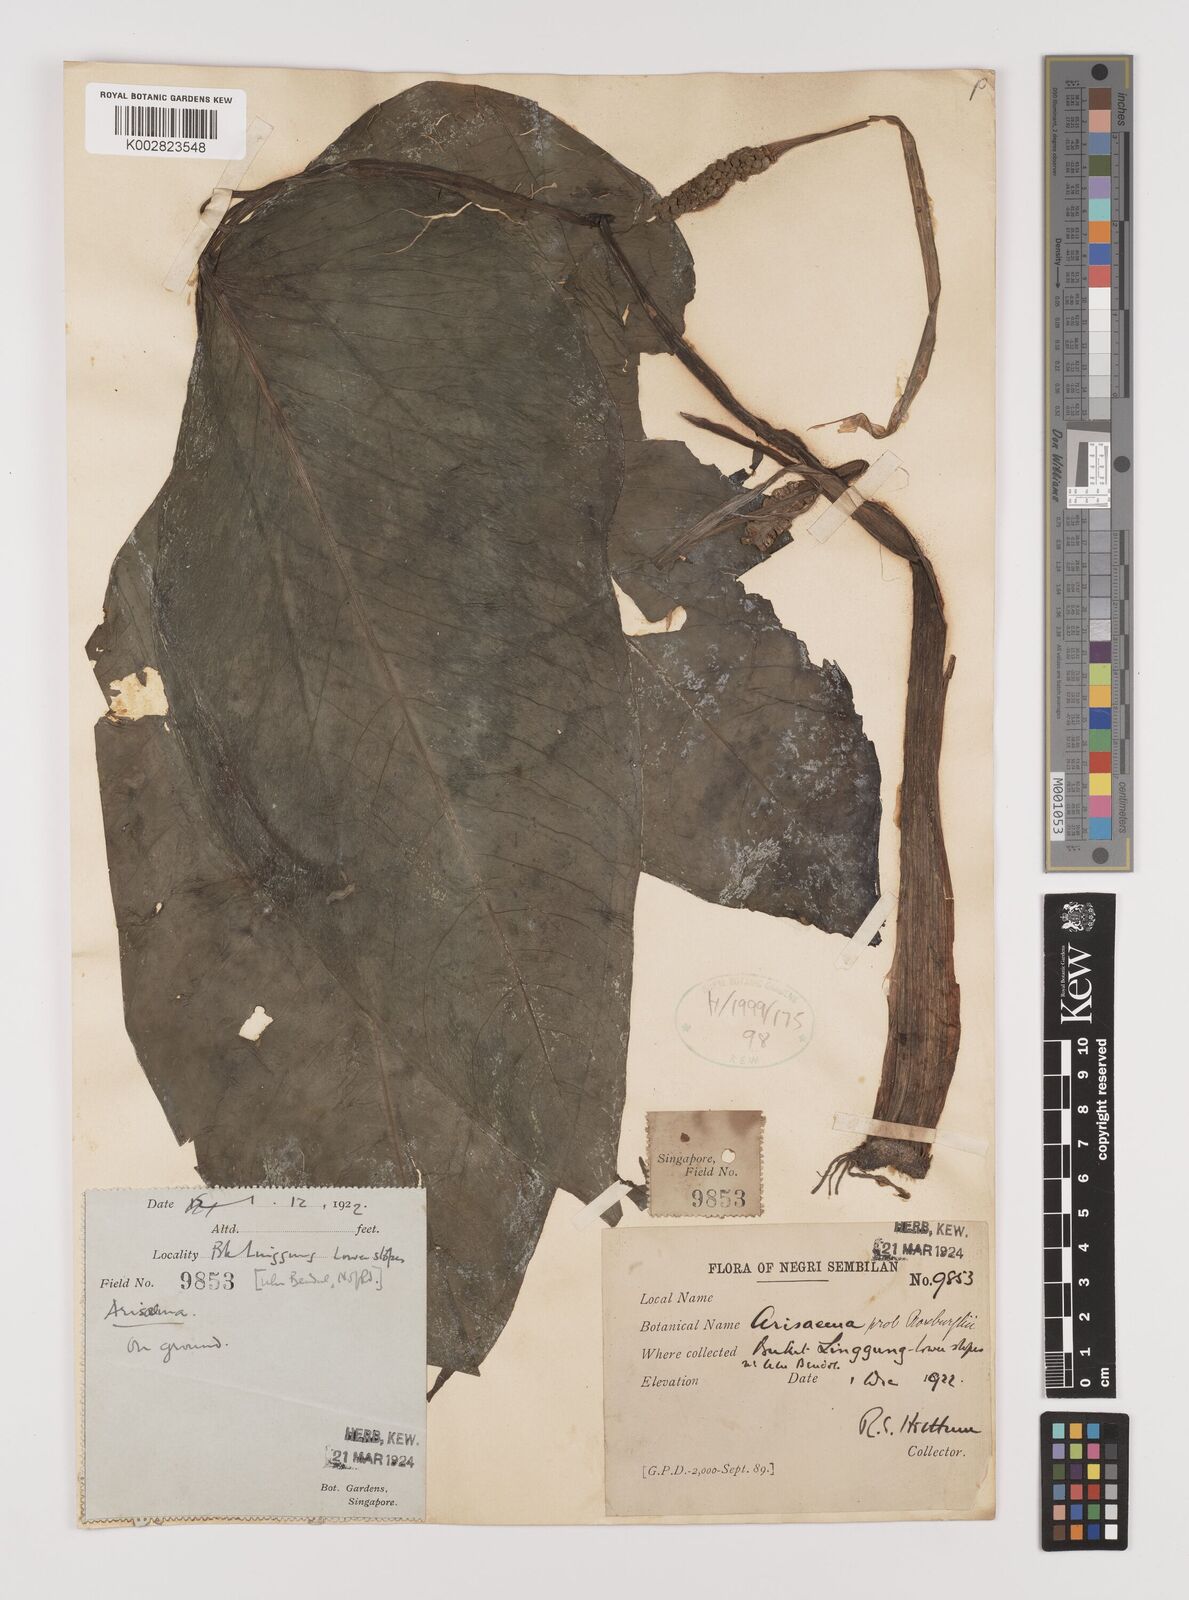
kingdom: Plantae
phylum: Tracheophyta
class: Liliopsida
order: Alismatales
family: Araceae
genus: Arisaema
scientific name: Arisaema roxburghii
